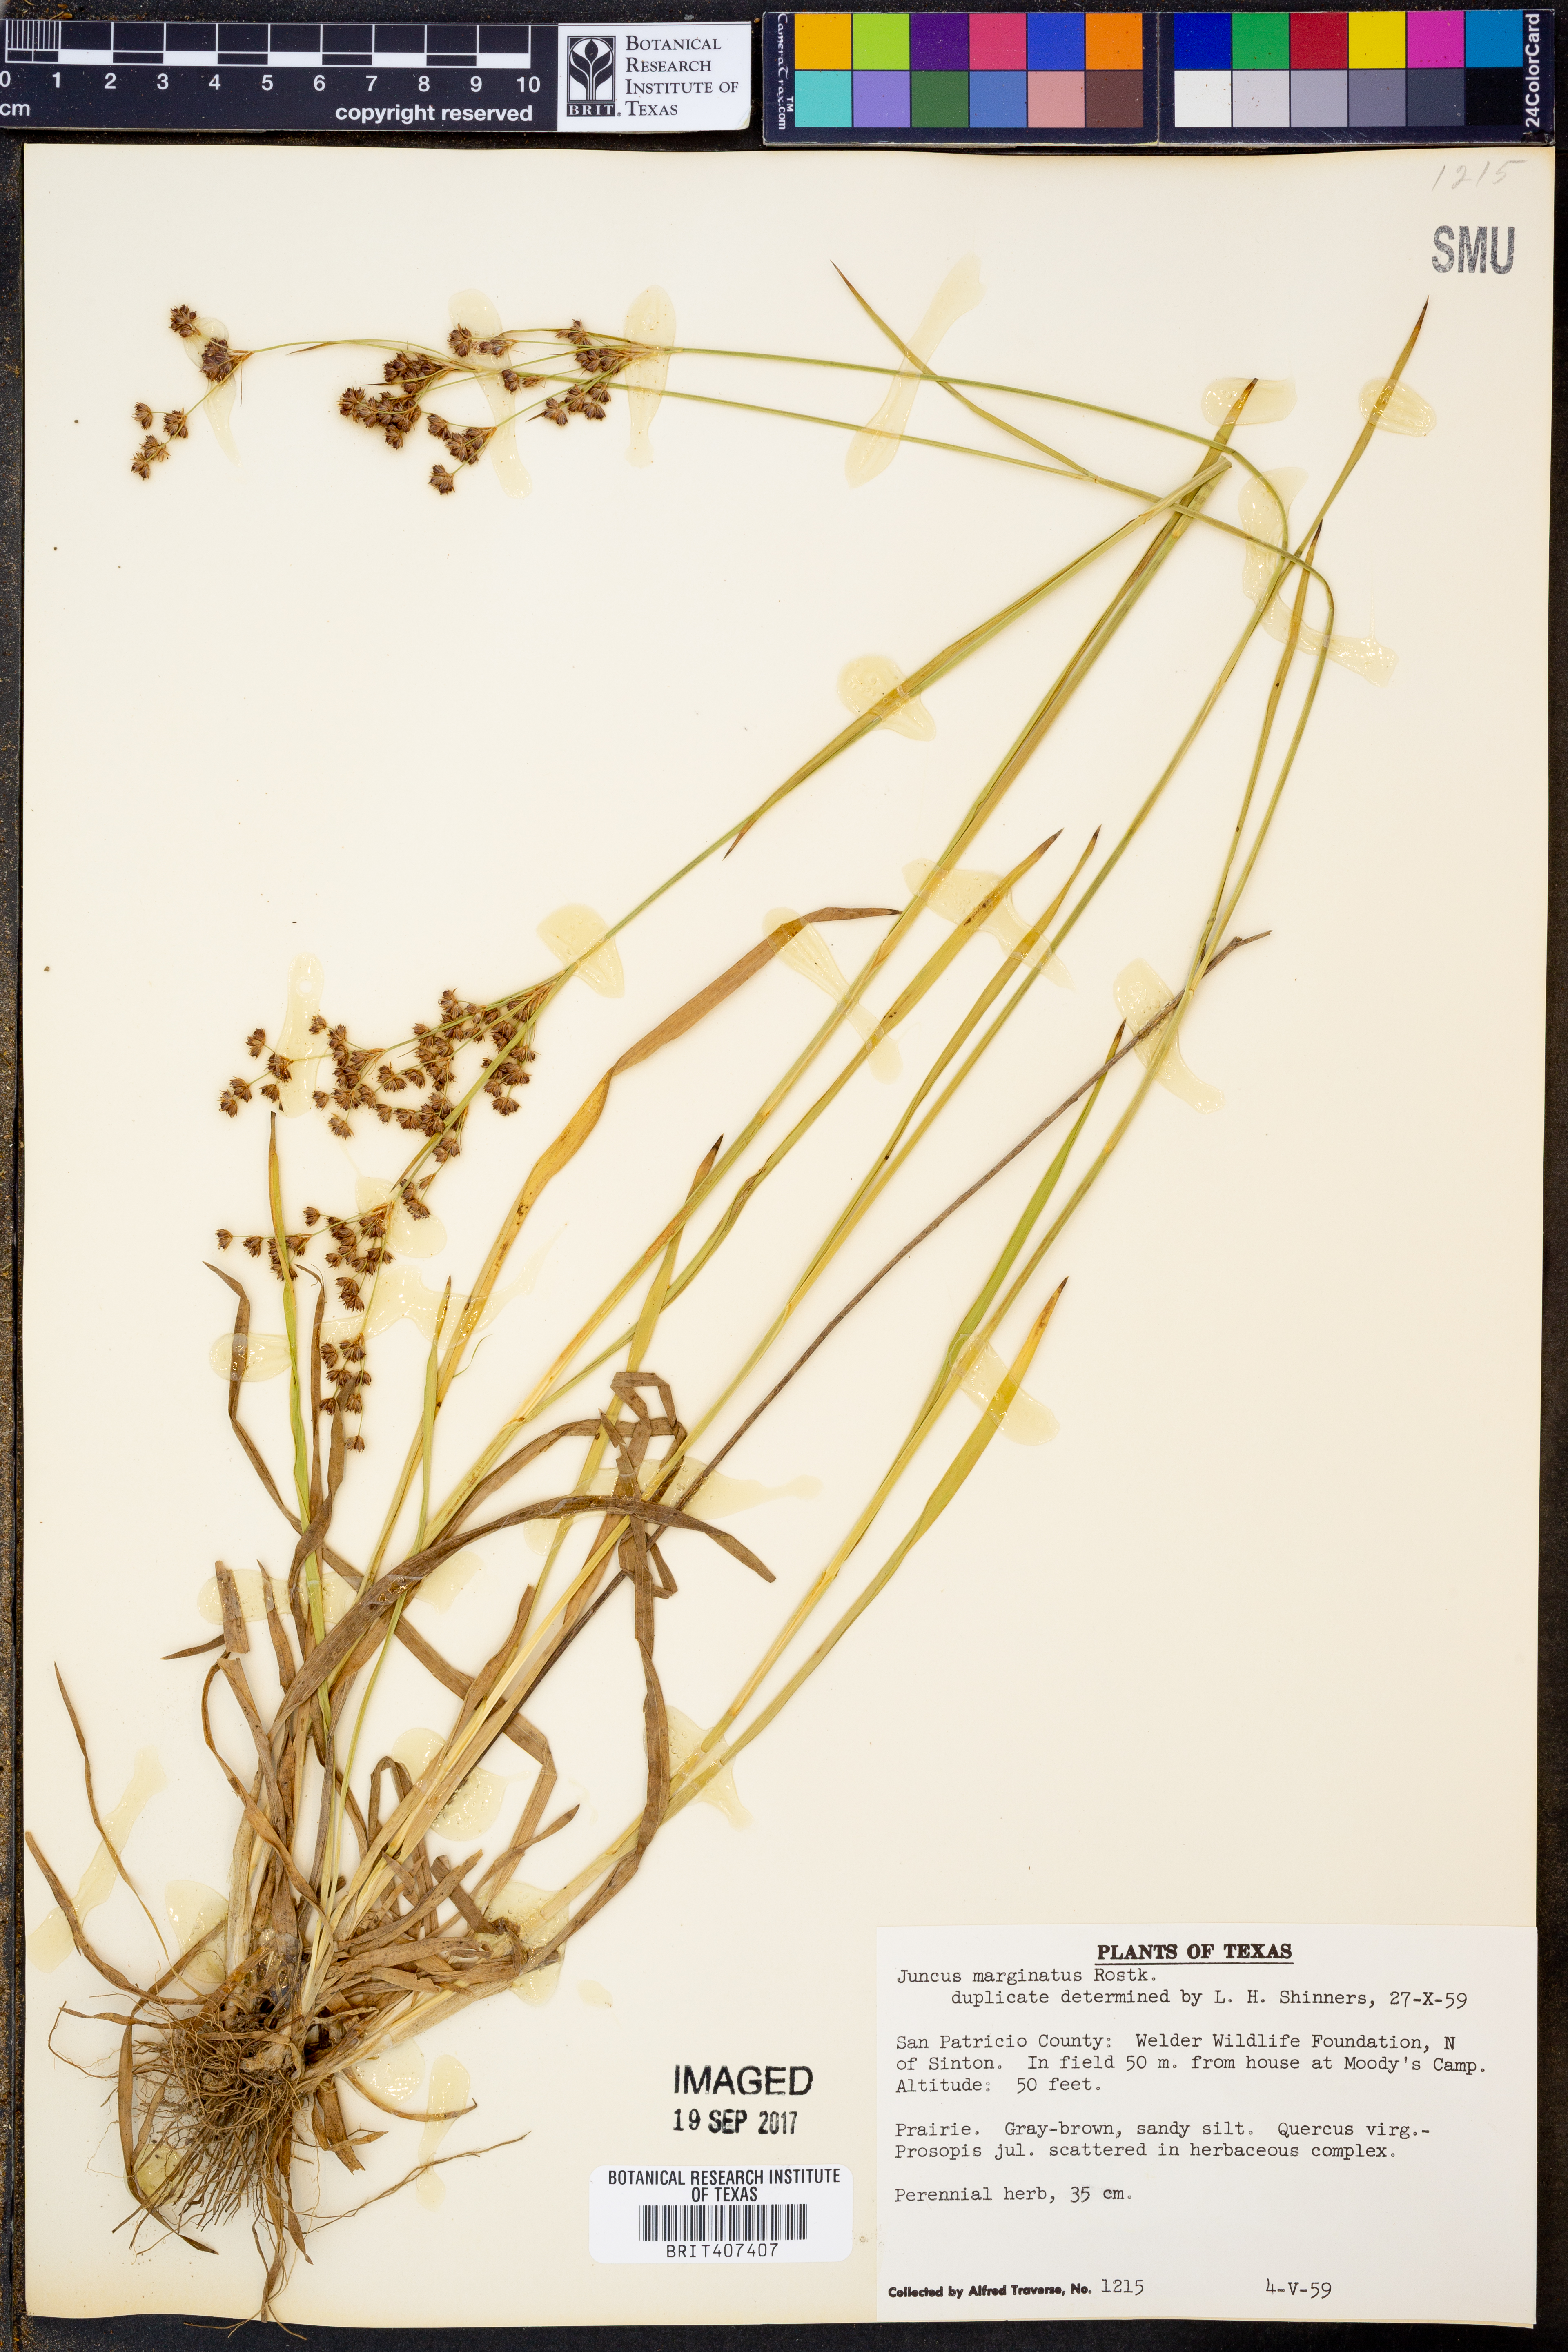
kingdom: Plantae
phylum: Tracheophyta
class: Liliopsida
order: Poales
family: Juncaceae
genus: Juncus
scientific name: Juncus marginatus
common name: Grass-leaf rush
